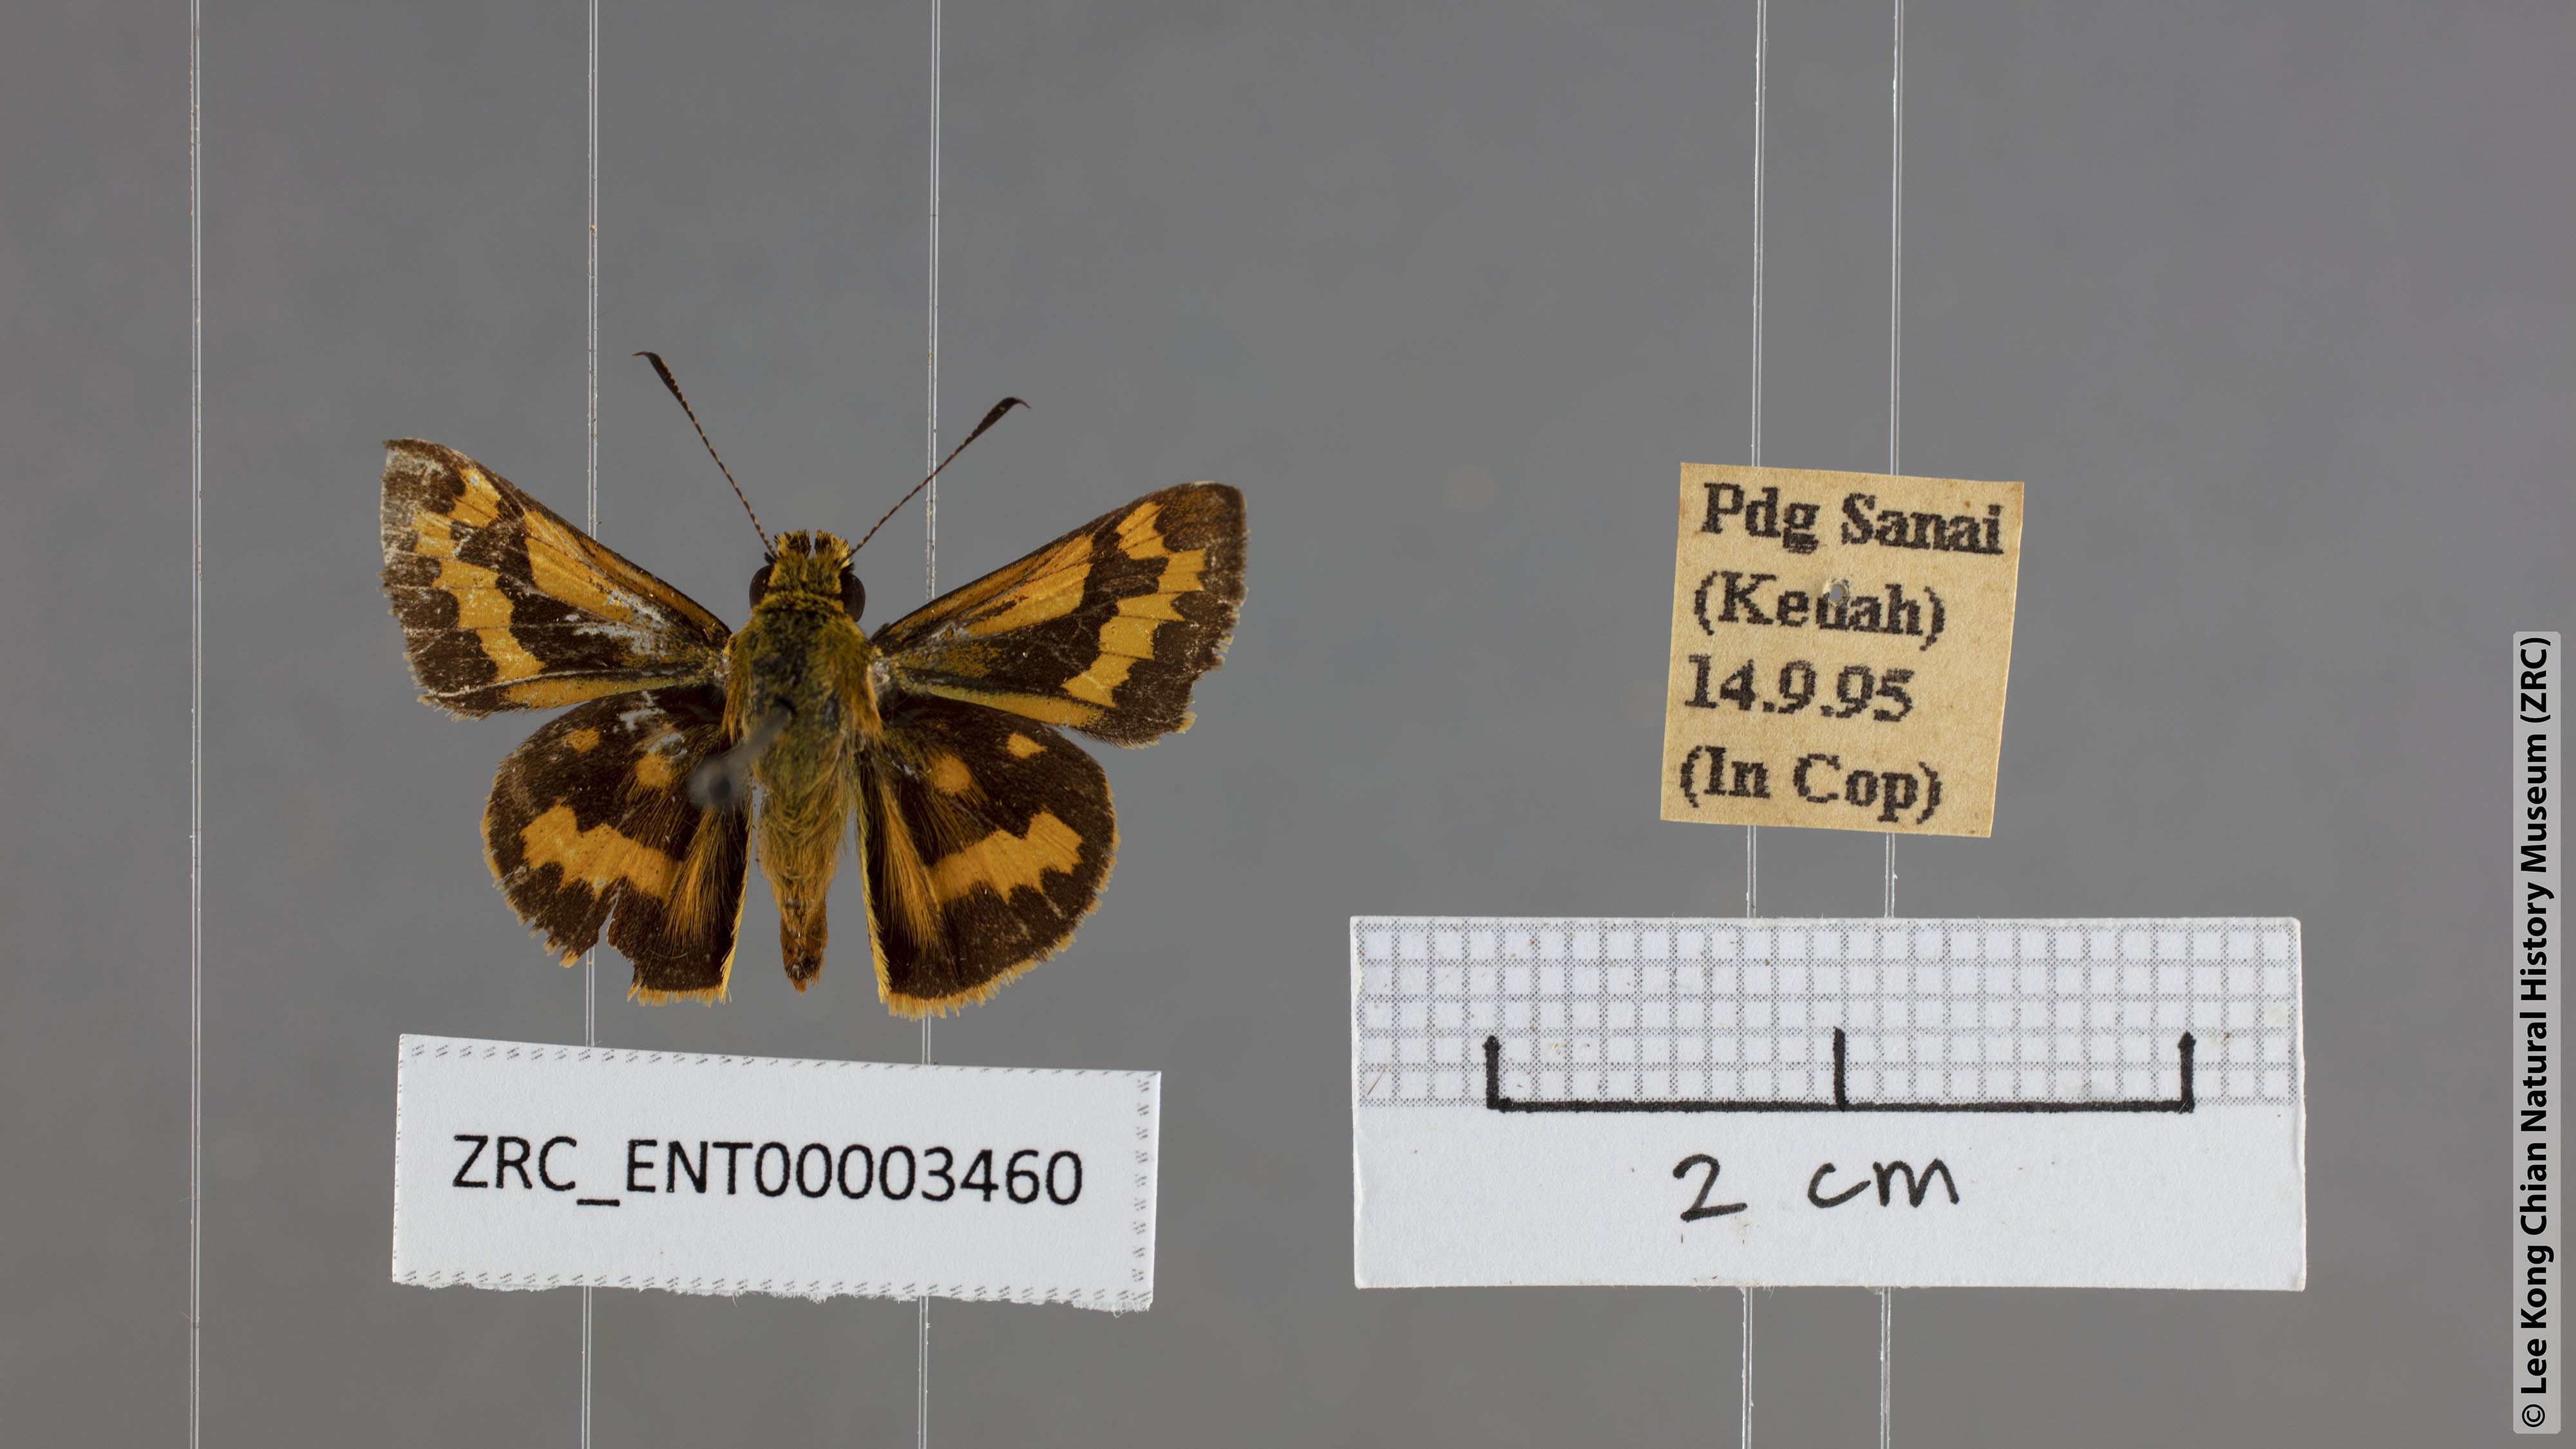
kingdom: Animalia
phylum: Arthropoda
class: Insecta
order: Lepidoptera
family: Hesperiidae
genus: Potanthus
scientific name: Potanthus confucius
